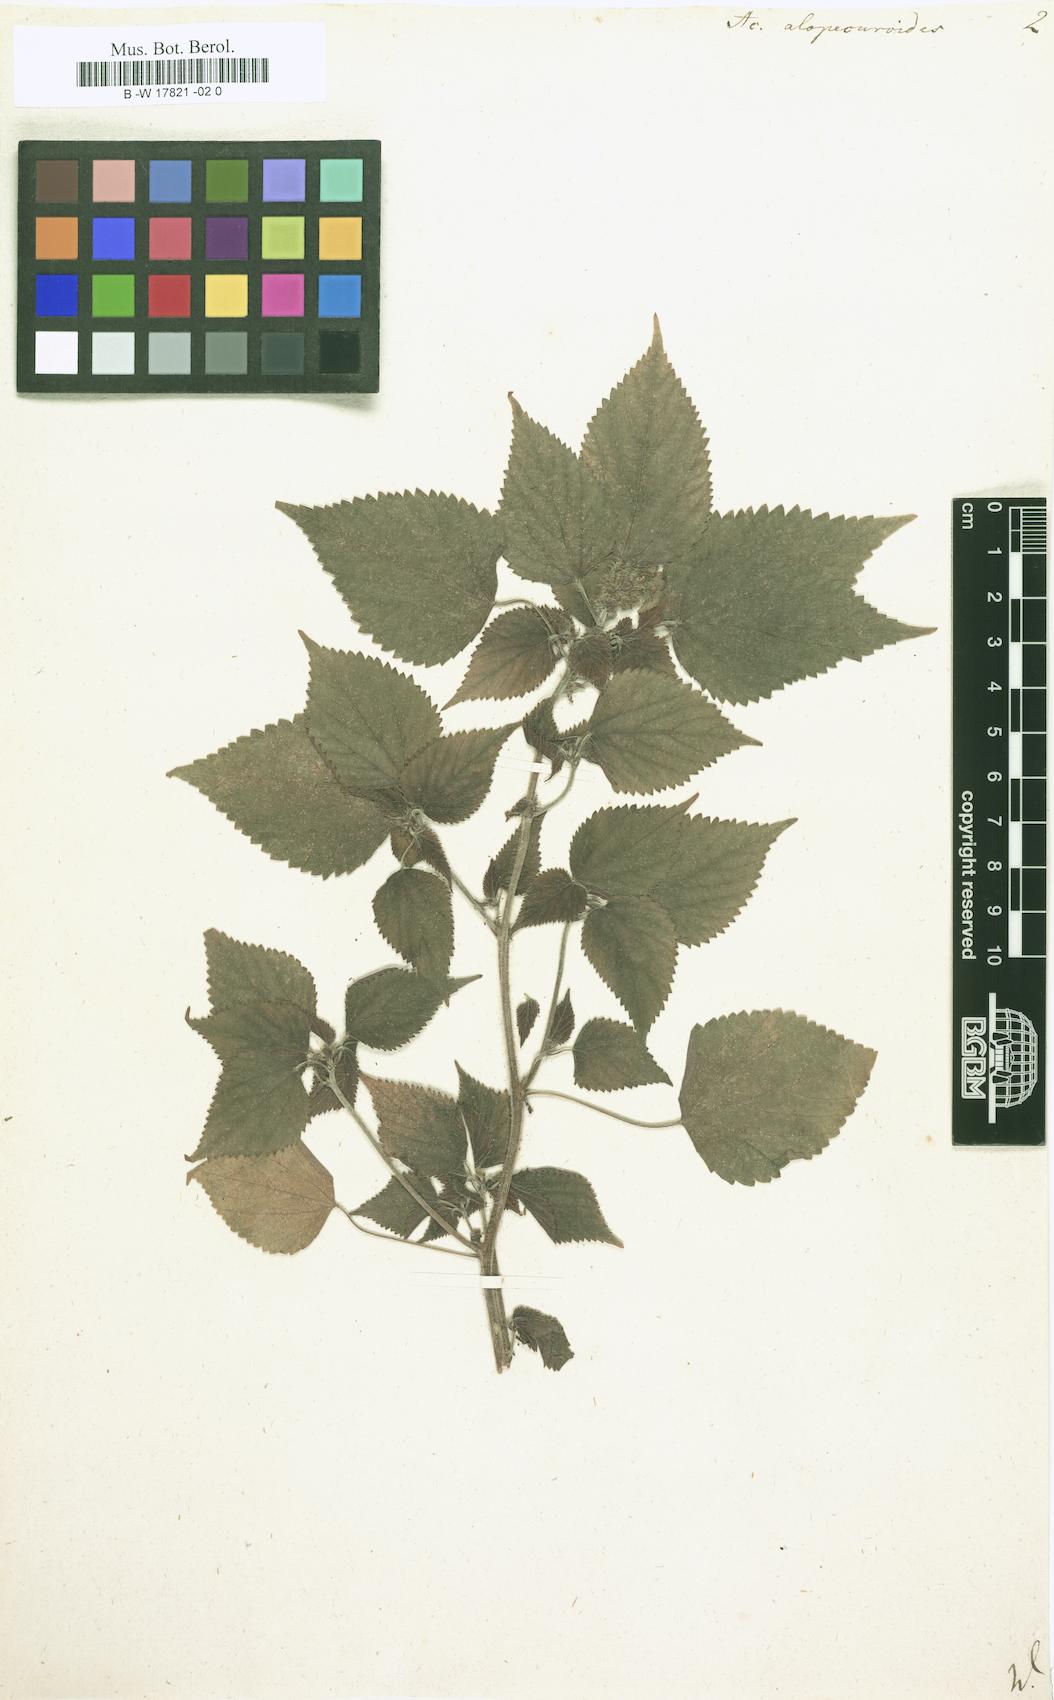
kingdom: Plantae
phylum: Tracheophyta
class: Magnoliopsida
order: Malpighiales
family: Euphorbiaceae
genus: Acalypha
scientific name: Acalypha alopecuroidea
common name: Foxtail copperleaf
